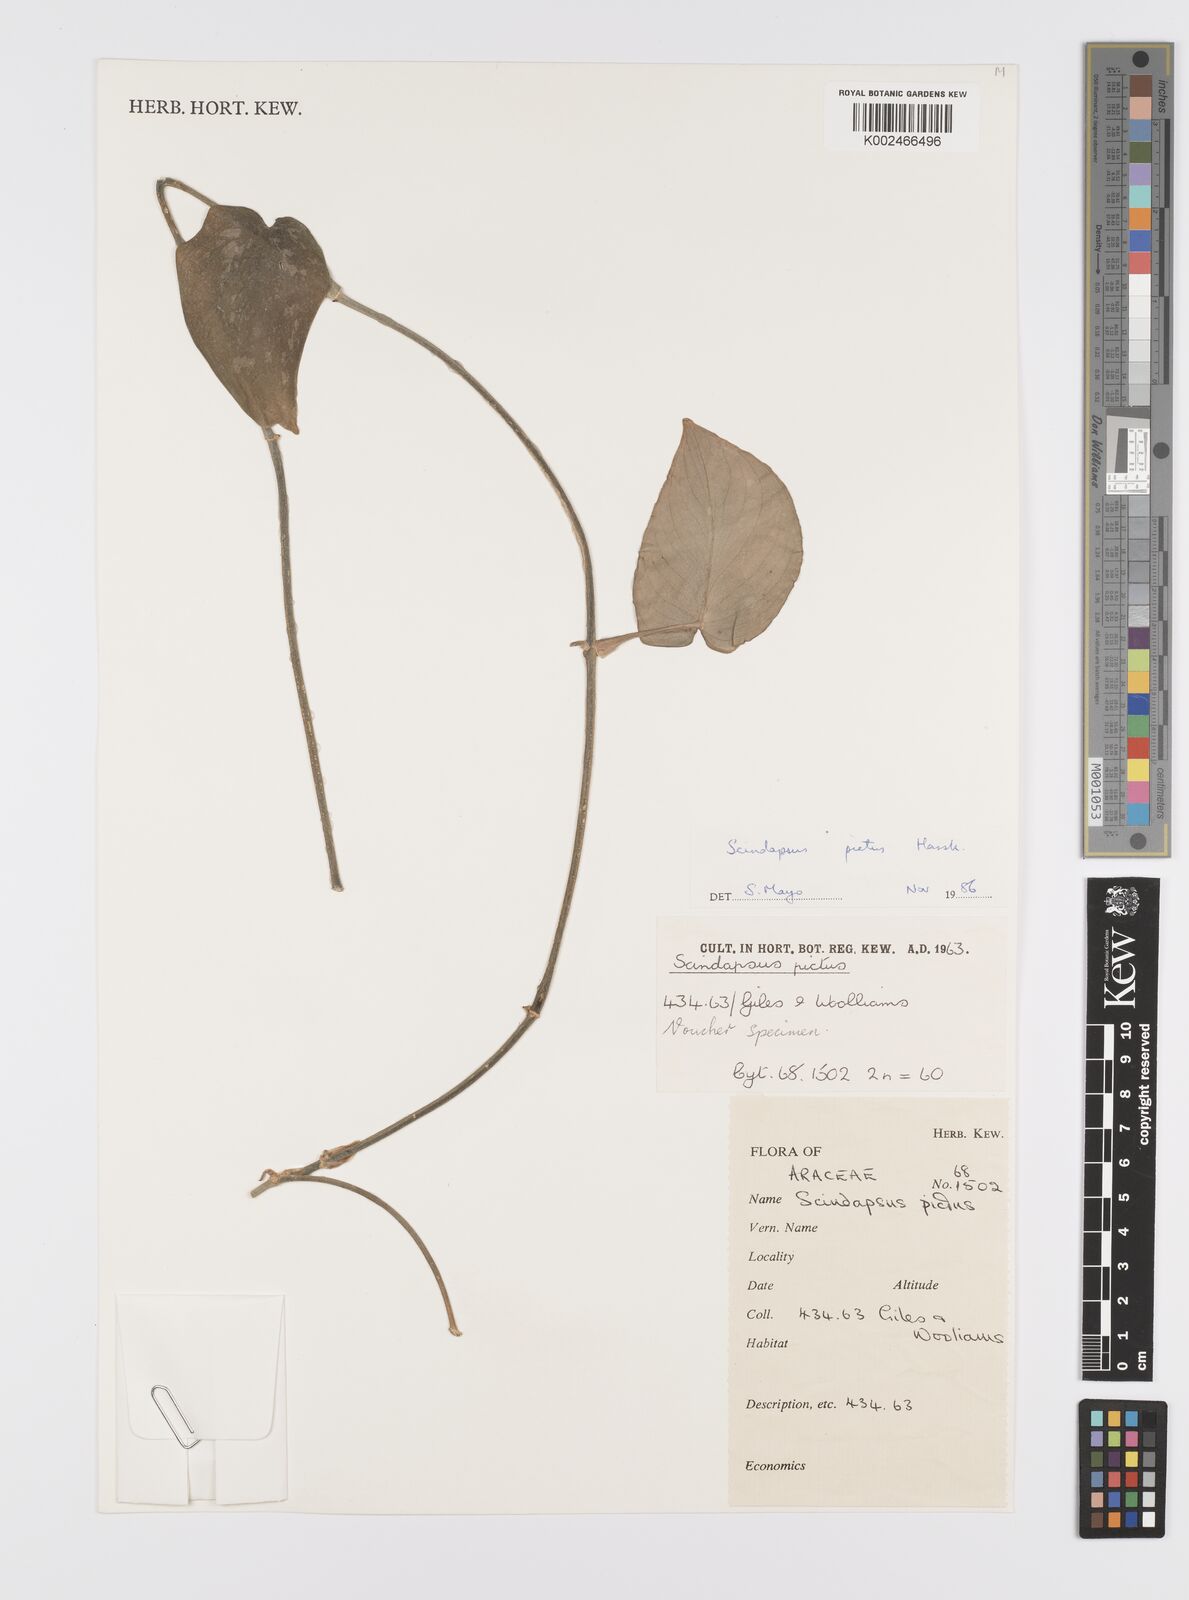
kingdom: Plantae
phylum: Tracheophyta
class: Liliopsida
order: Alismatales
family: Araceae
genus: Scindapsus
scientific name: Scindapsus pictus
